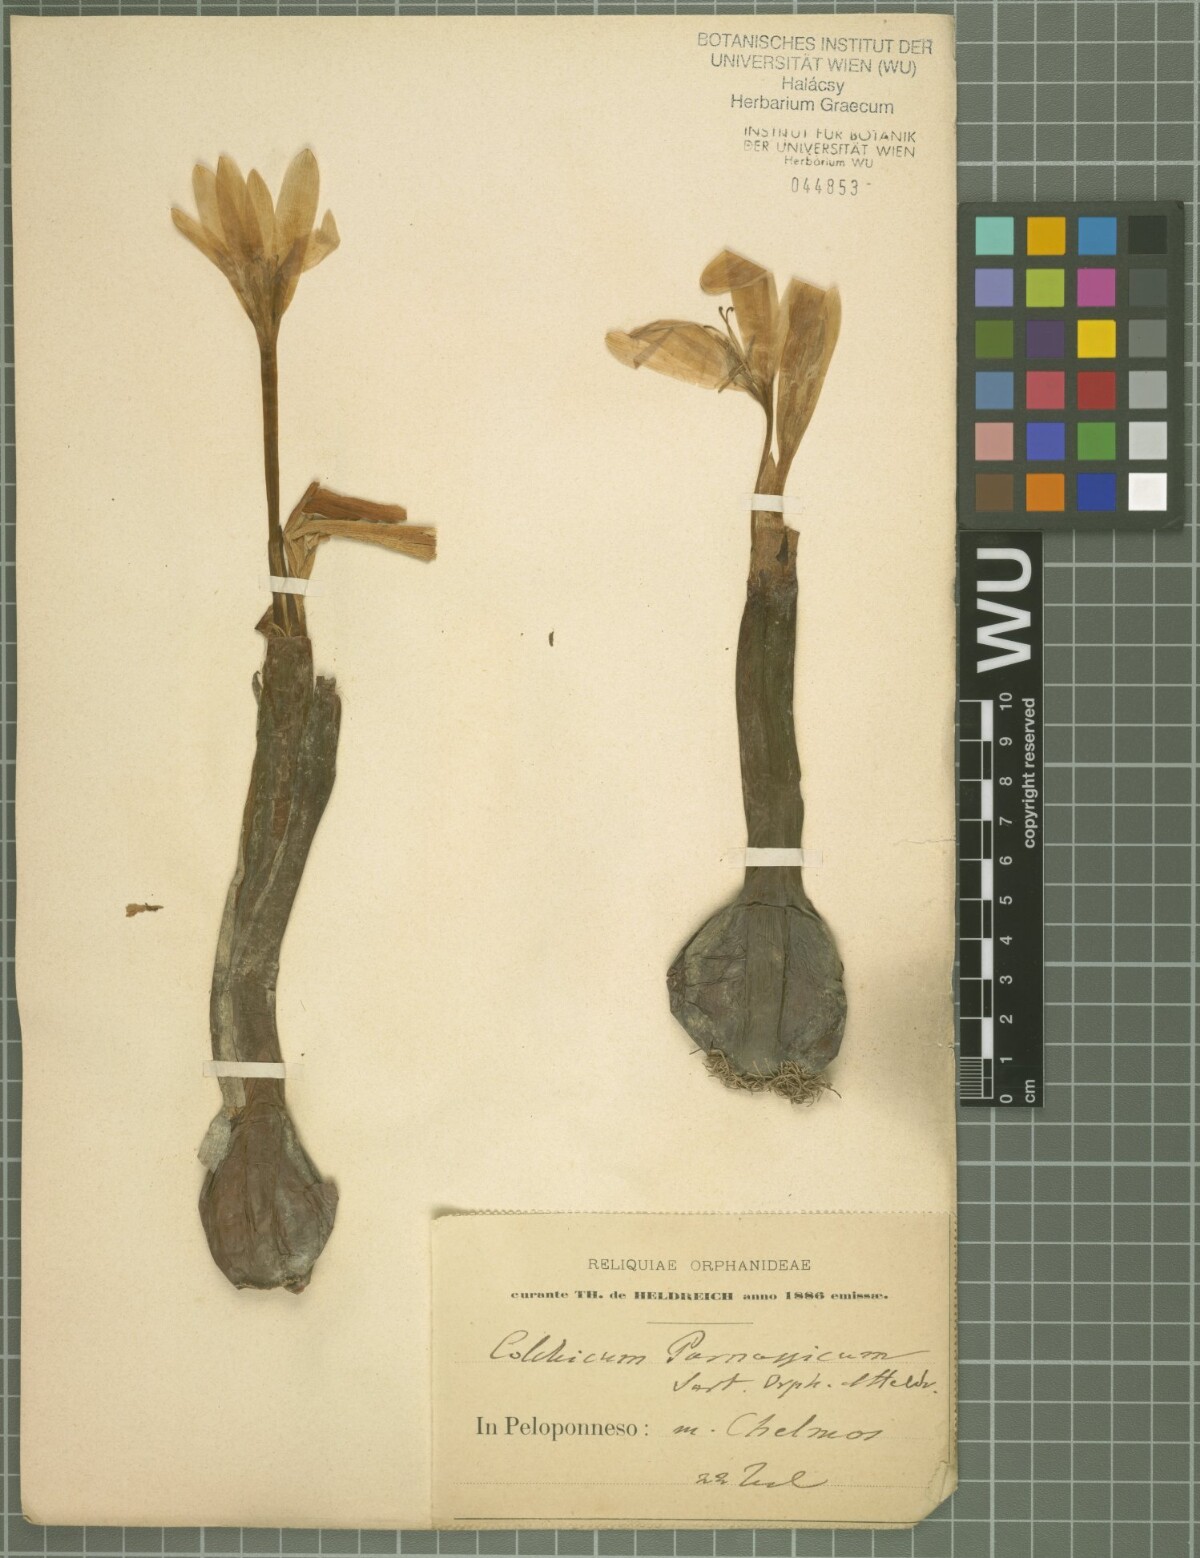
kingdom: Plantae
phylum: Tracheophyta
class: Liliopsida
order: Liliales
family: Colchicaceae
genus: Colchicum
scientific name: Colchicum graecum
